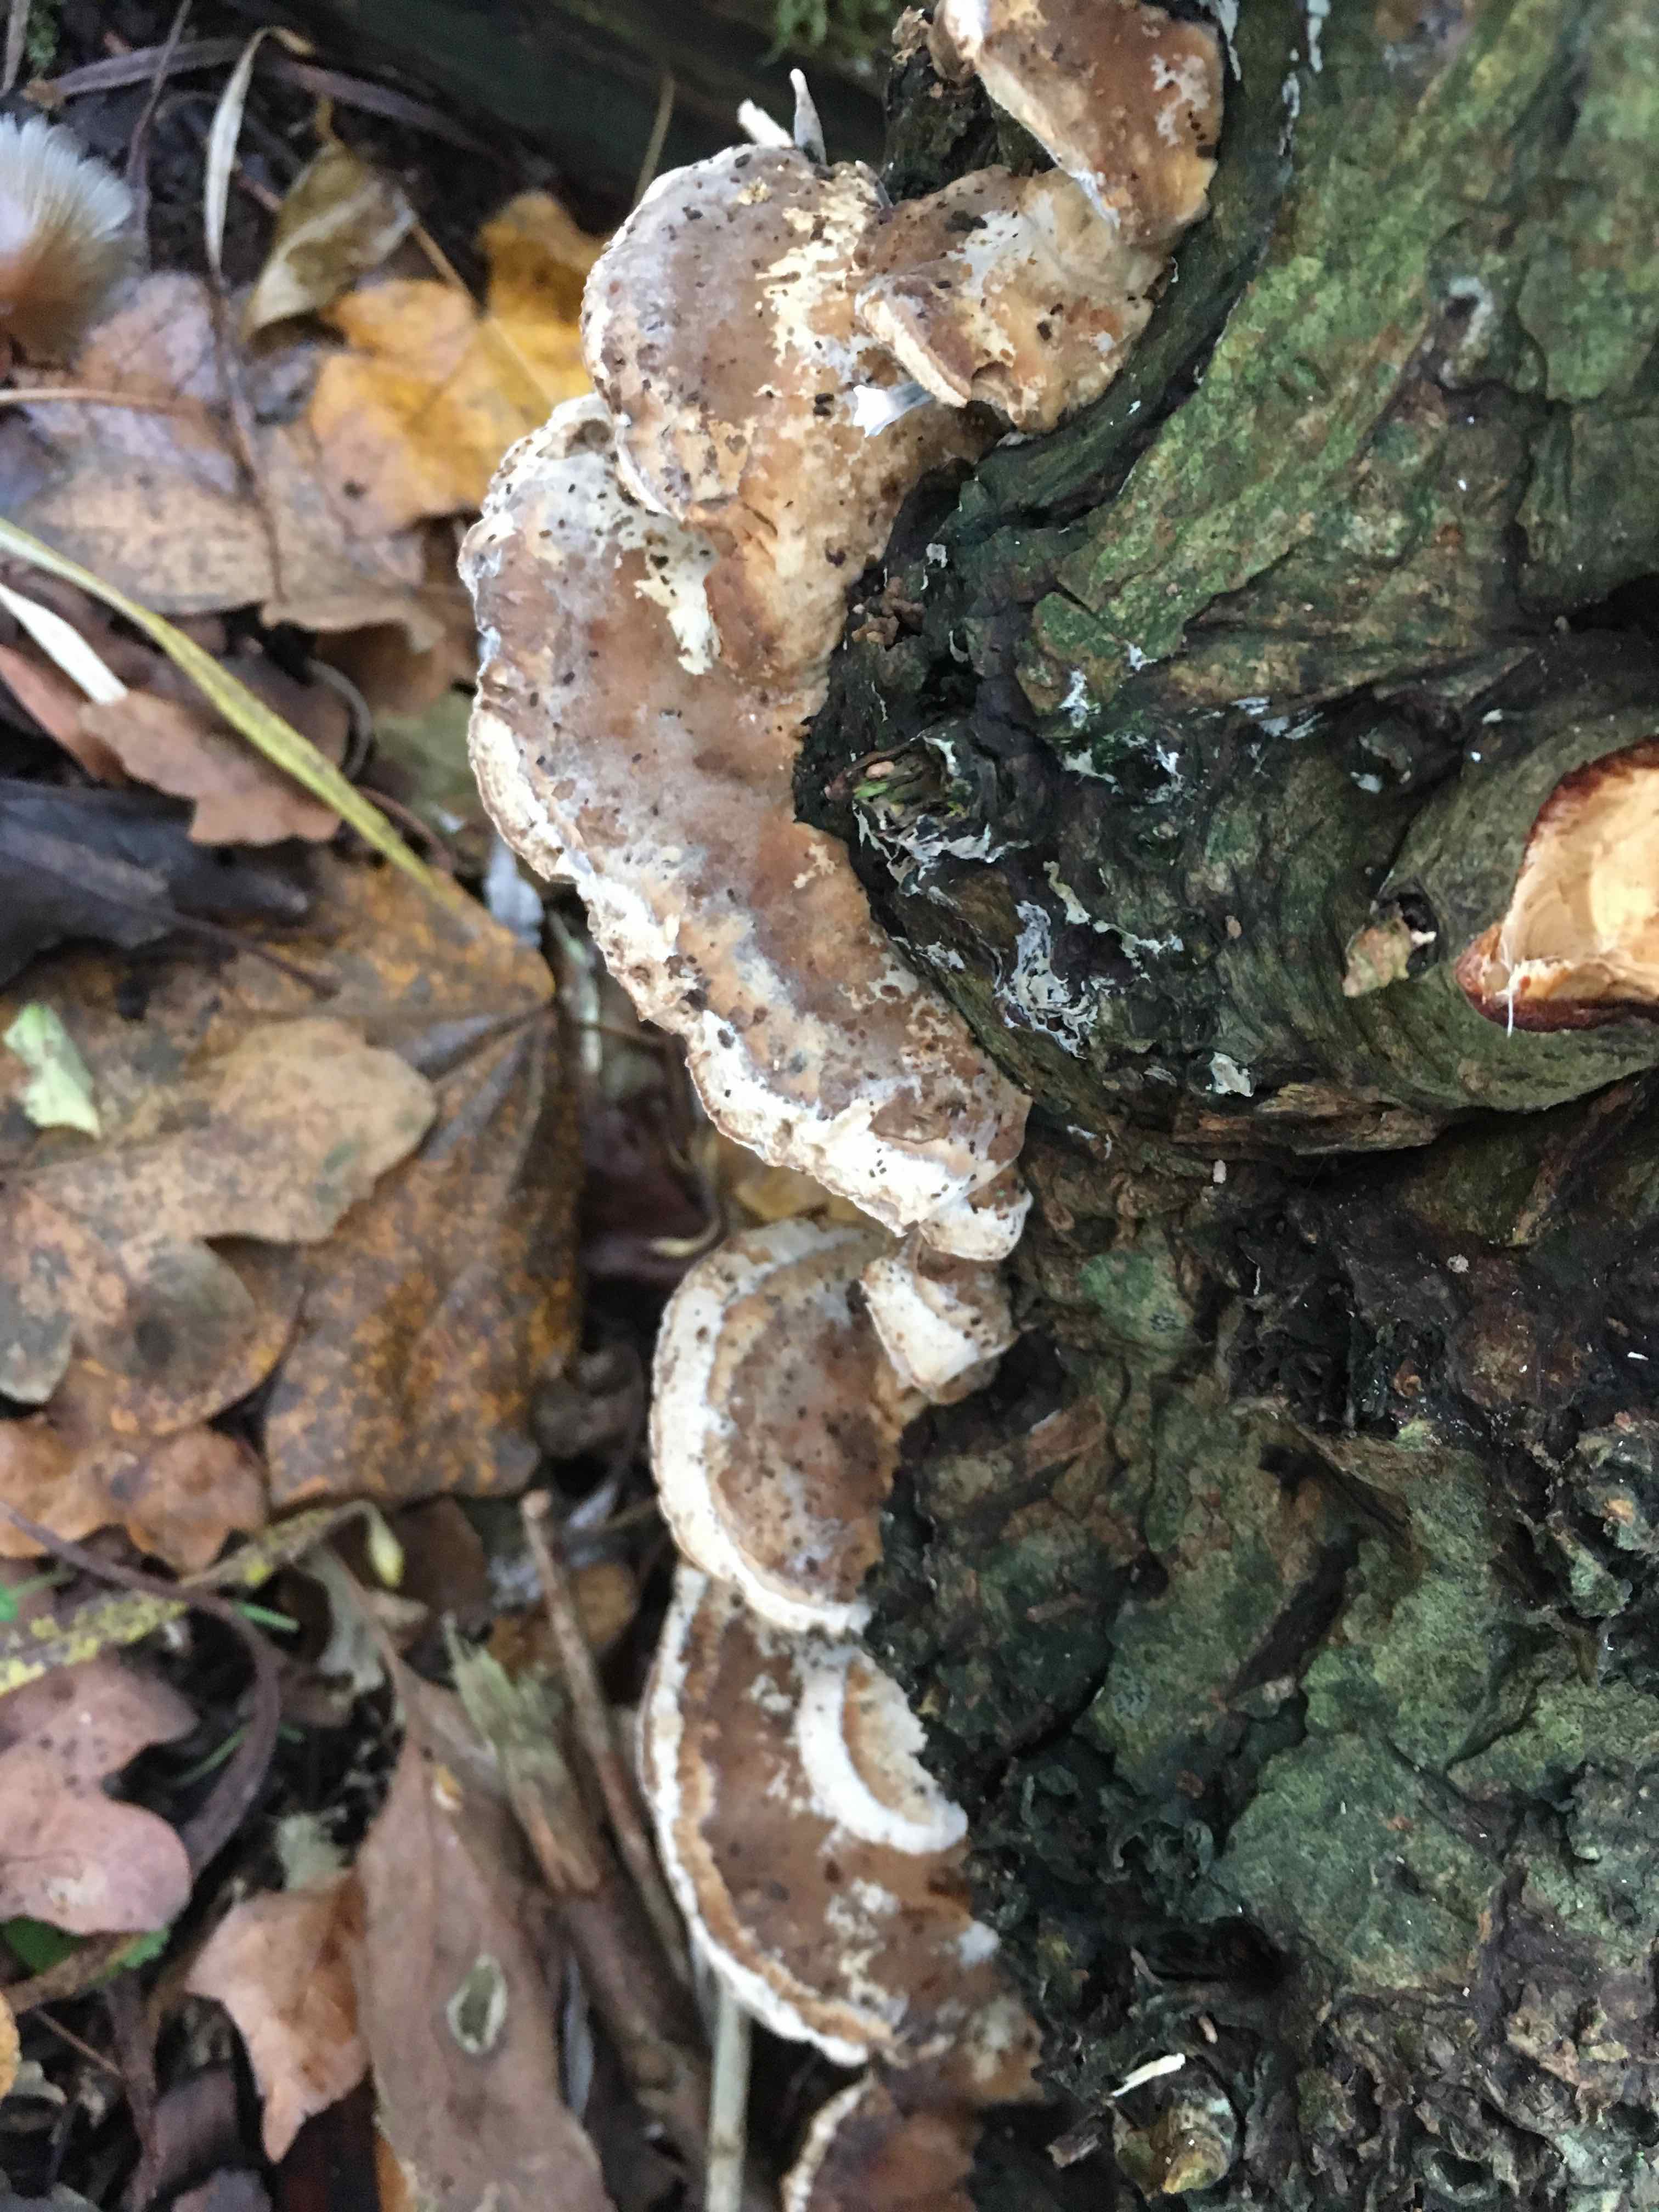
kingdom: Fungi
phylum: Basidiomycota
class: Agaricomycetes
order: Polyporales
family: Phanerochaetaceae
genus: Bjerkandera
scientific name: Bjerkandera fumosa
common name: grågul sodporesvamp
